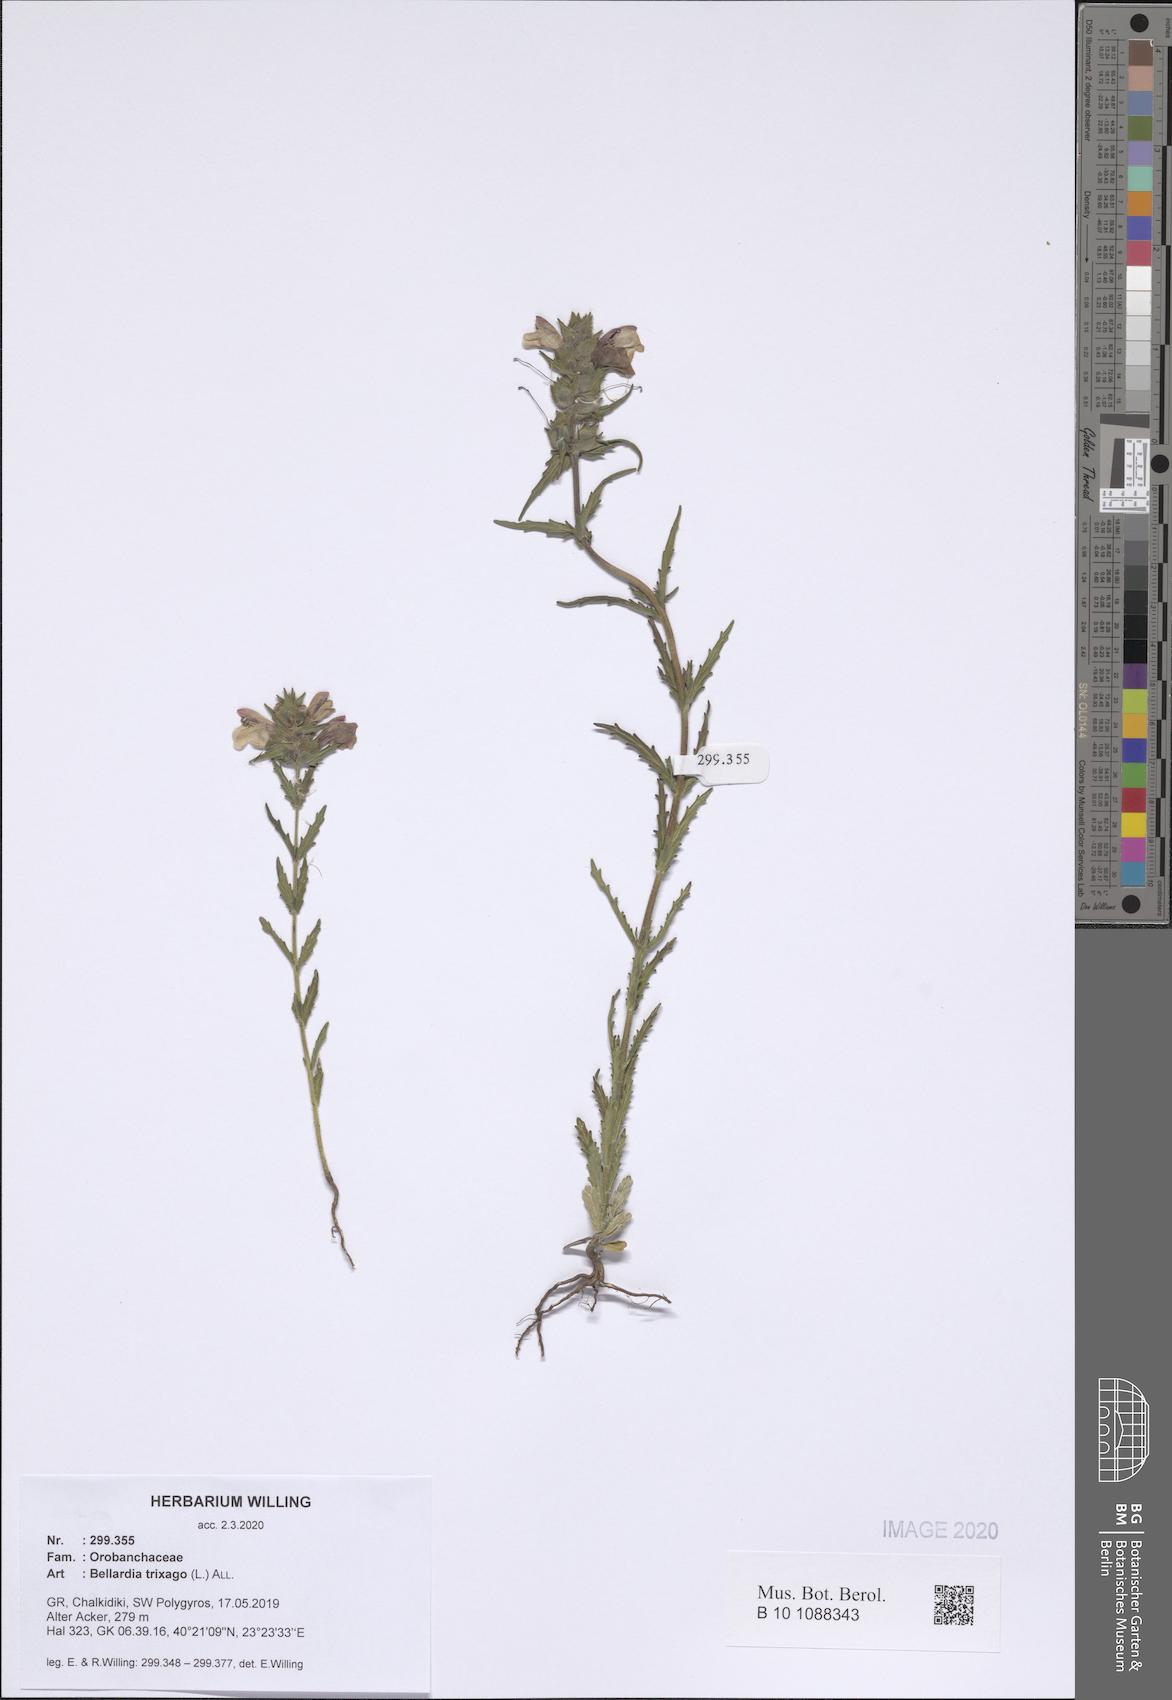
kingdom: Plantae
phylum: Tracheophyta
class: Magnoliopsida
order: Lamiales
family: Orobanchaceae
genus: Bellardia
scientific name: Bellardia trixago
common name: Mediterranean lineseed
